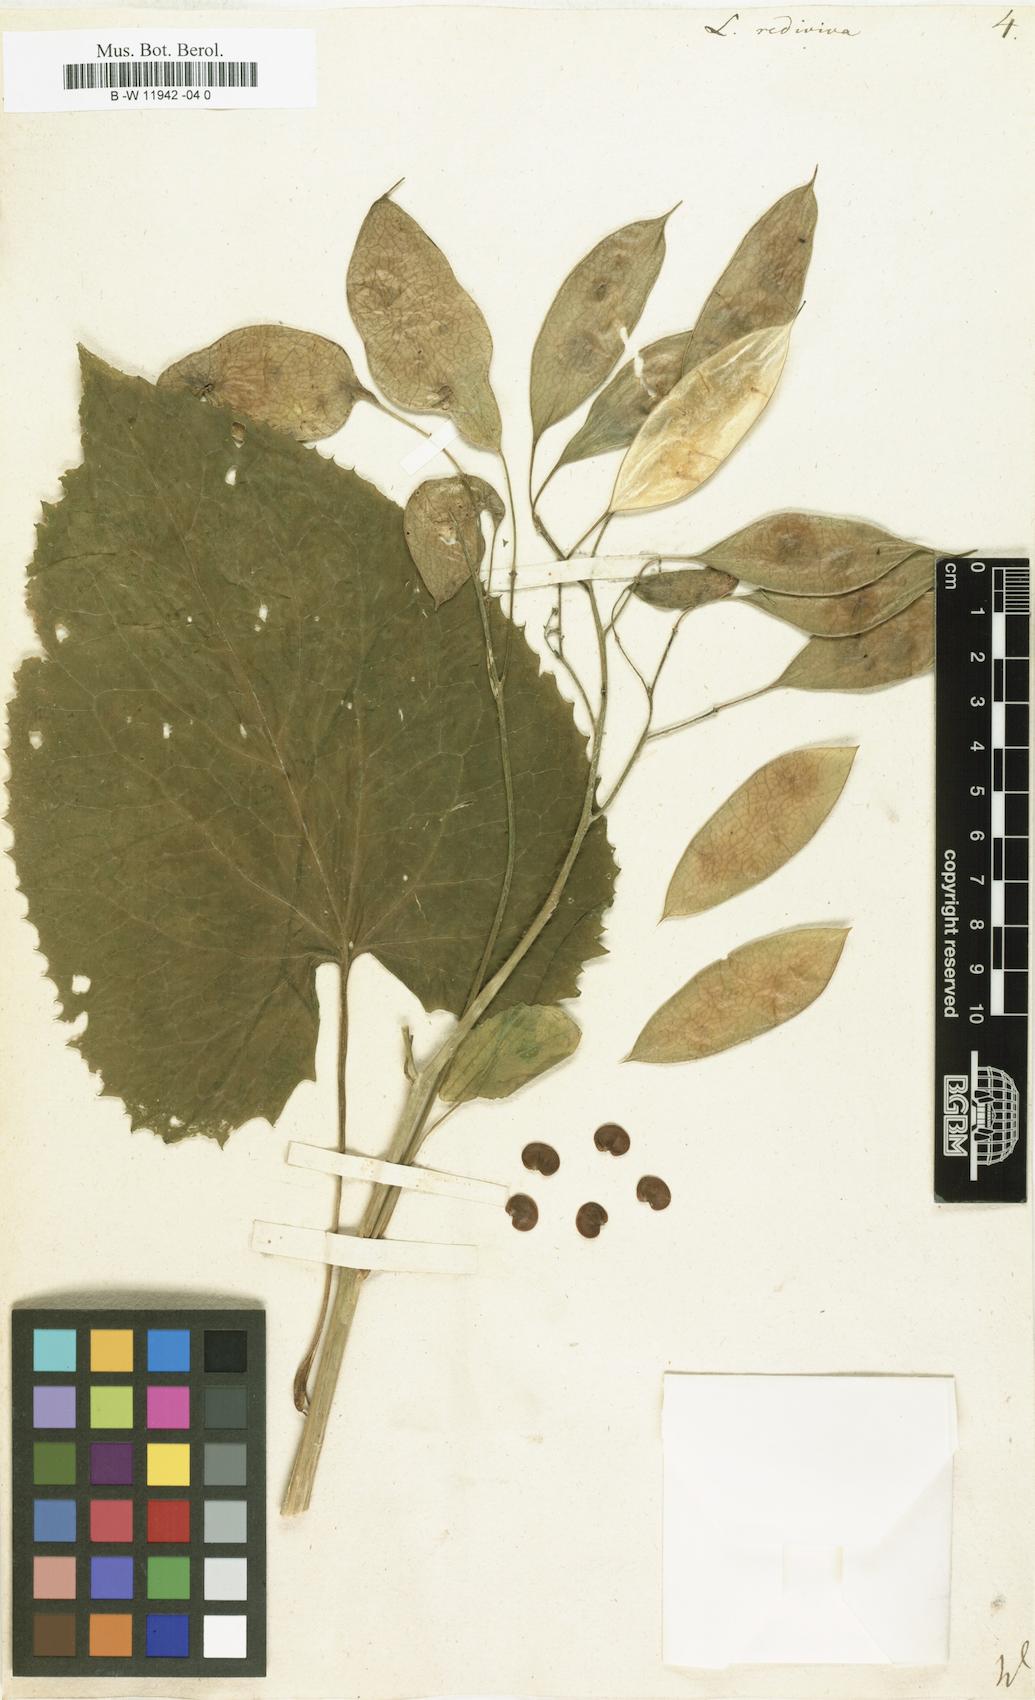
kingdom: Plantae
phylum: Tracheophyta
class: Magnoliopsida
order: Brassicales
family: Brassicaceae
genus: Lunaria
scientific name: Lunaria rediviva
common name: Perennial honesty
